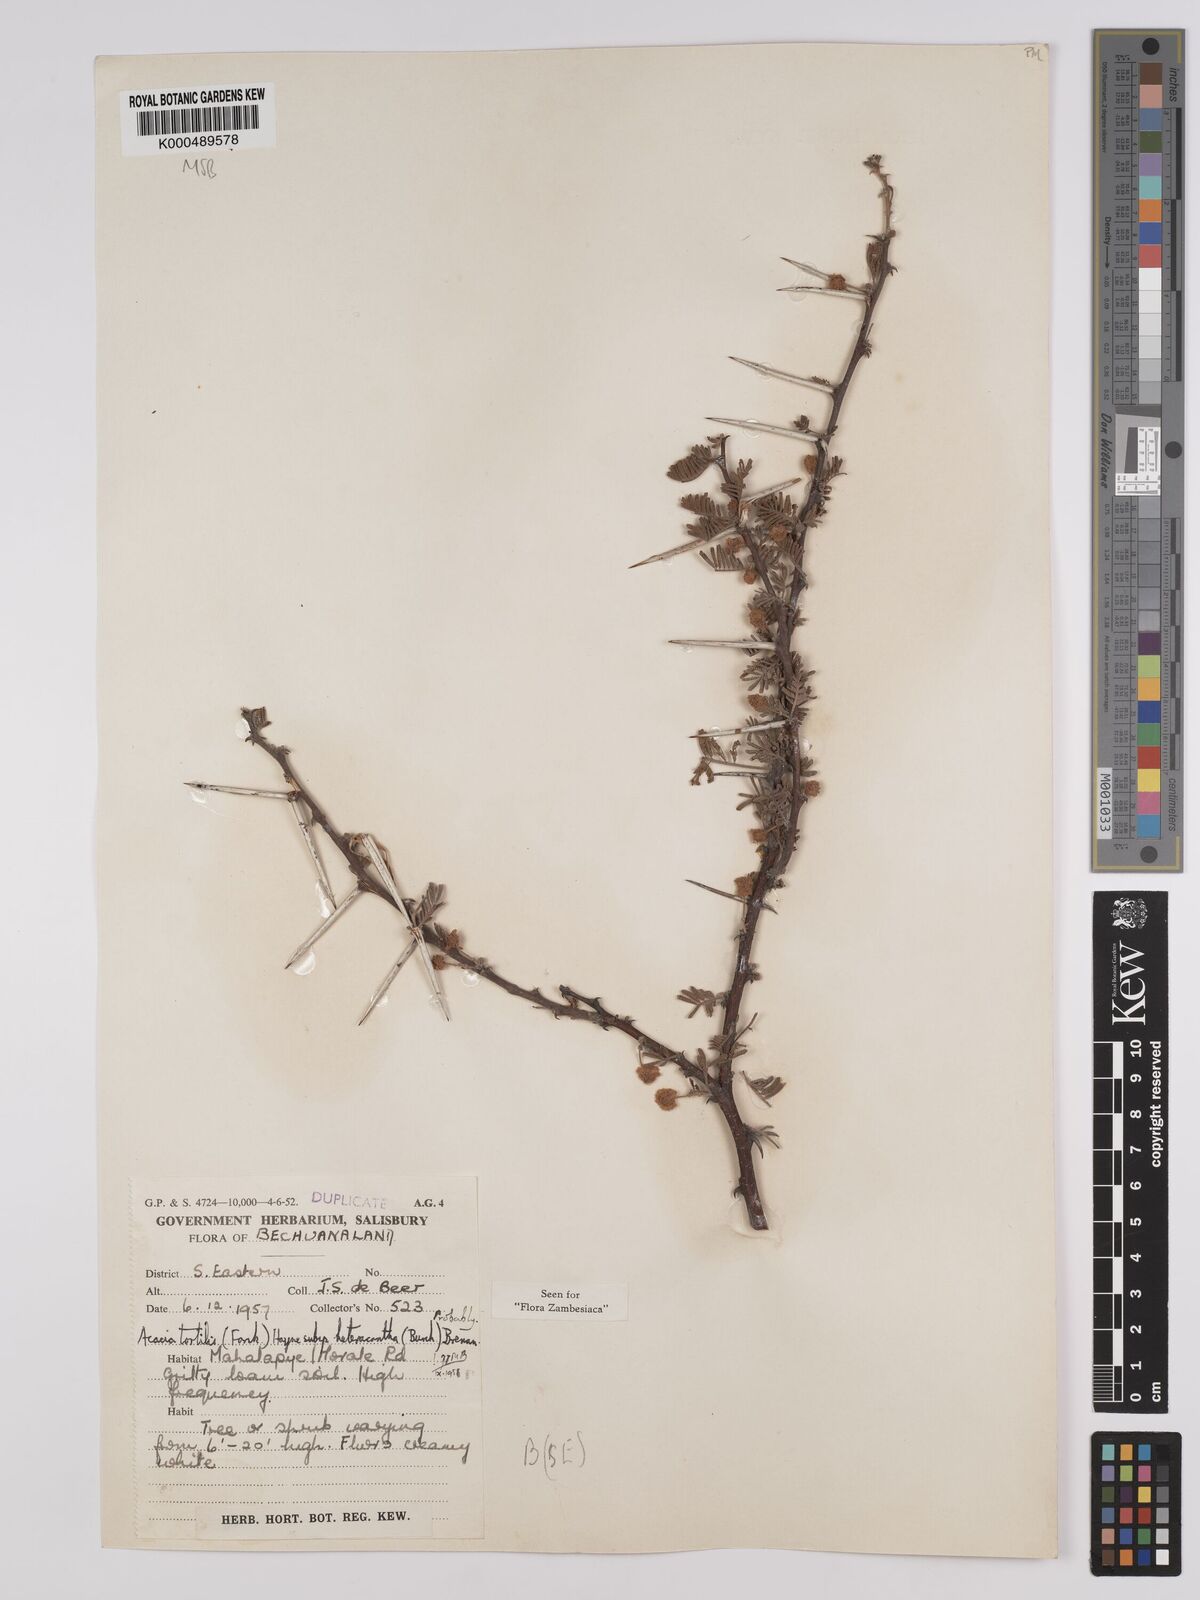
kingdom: Plantae
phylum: Tracheophyta
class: Magnoliopsida
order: Fabales
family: Fabaceae
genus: Vachellia
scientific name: Vachellia tortilis
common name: Umbrella thorn acacia
